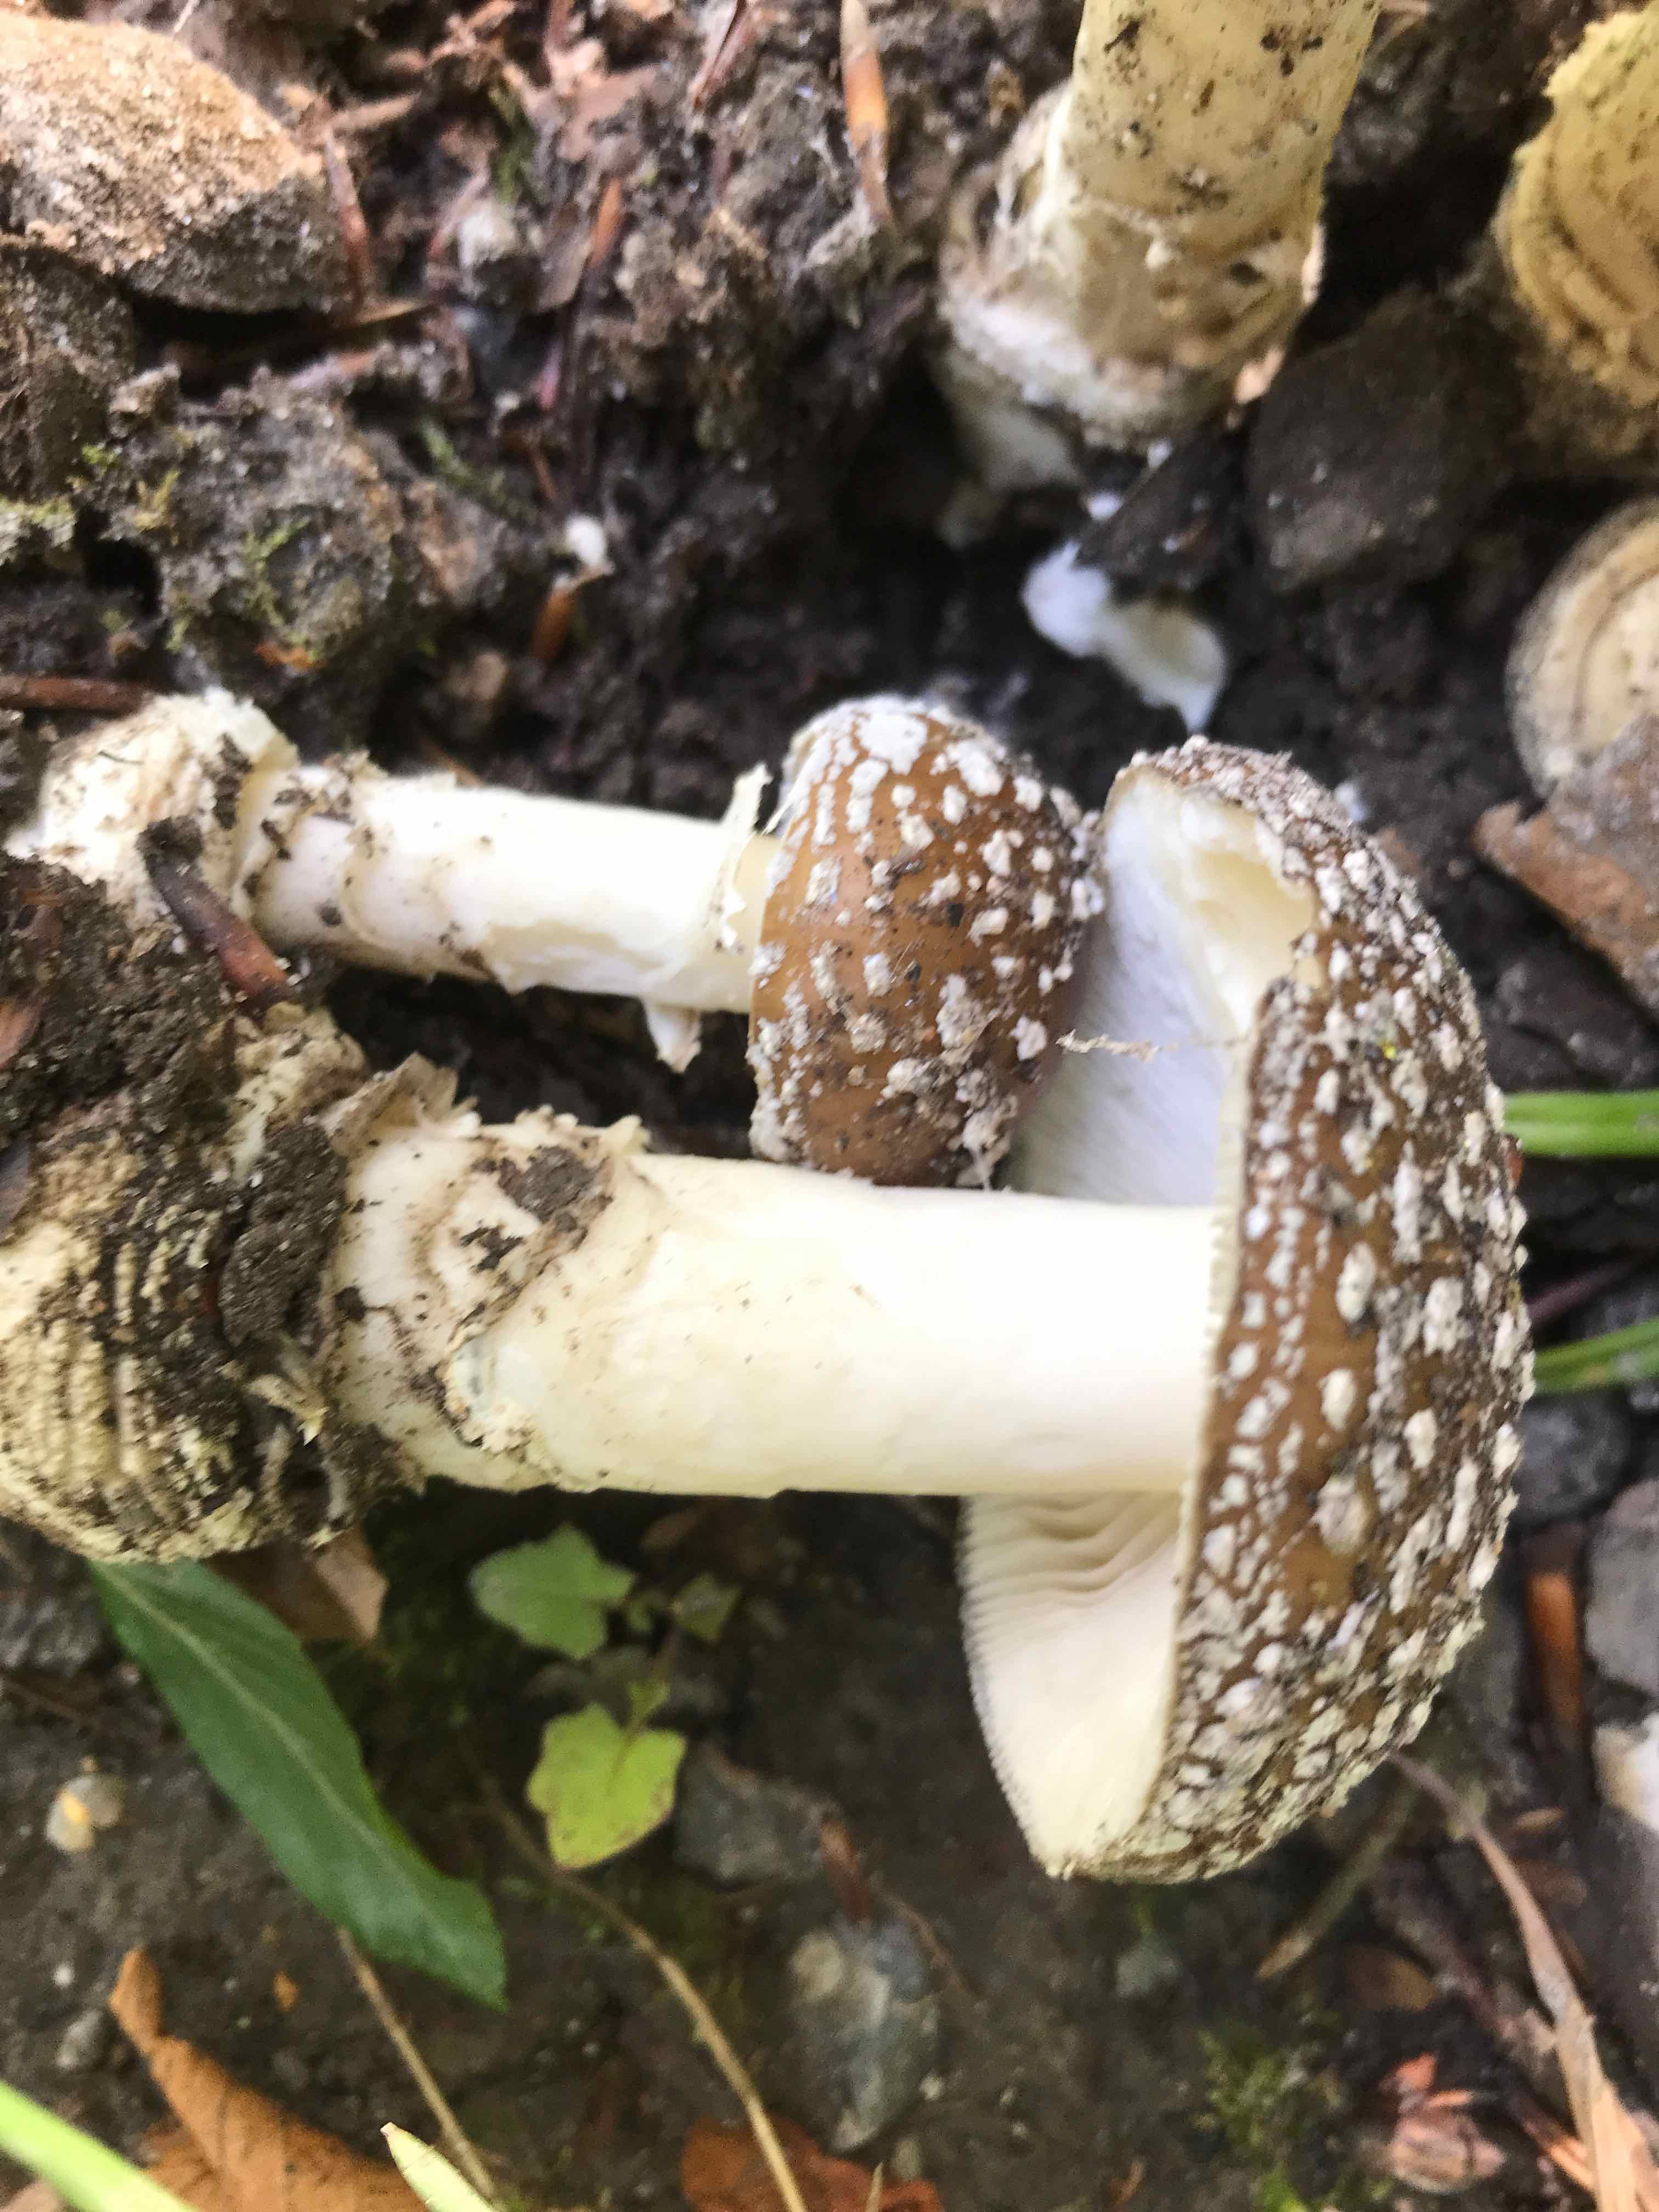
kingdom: Fungi
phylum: Basidiomycota
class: Agaricomycetes
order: Agaricales
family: Amanitaceae
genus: Amanita
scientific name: Amanita pantherina
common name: panter-fluesvamp
